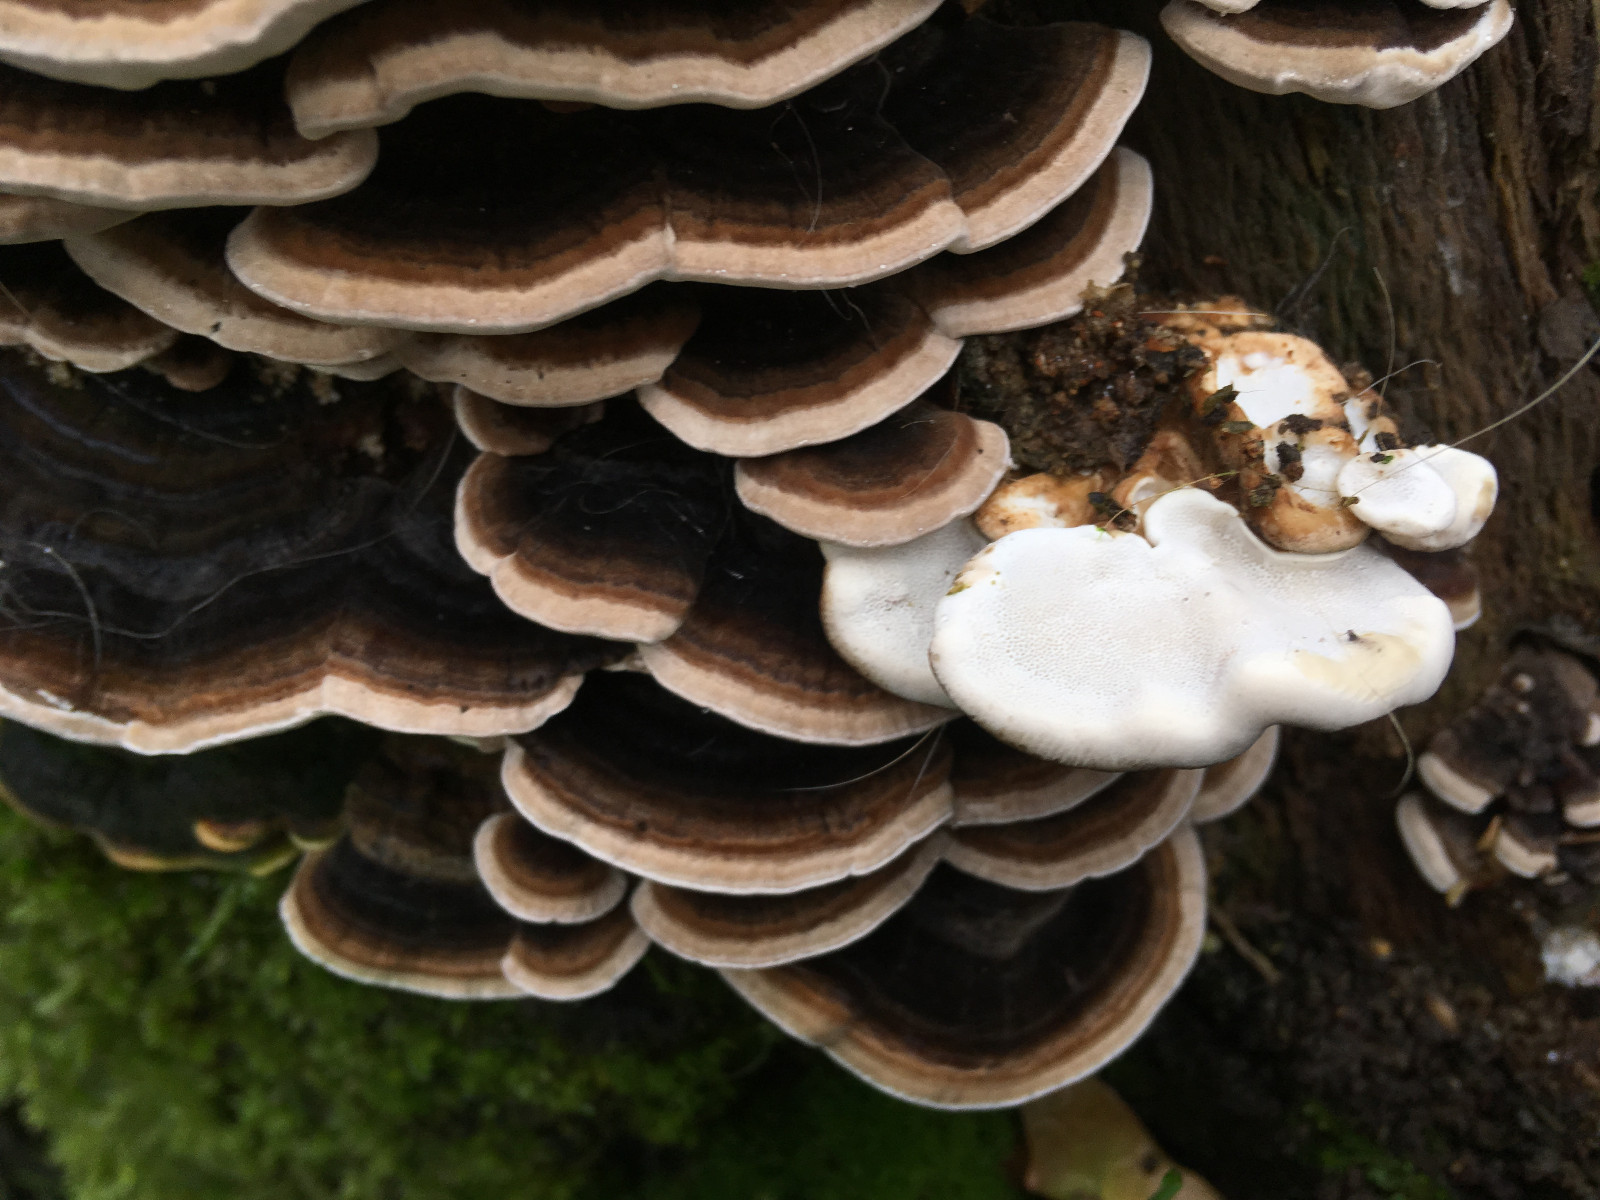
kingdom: Fungi
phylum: Basidiomycota
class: Agaricomycetes
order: Polyporales
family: Polyporaceae
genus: Trametes
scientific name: Trametes versicolor
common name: broget læderporesvamp
